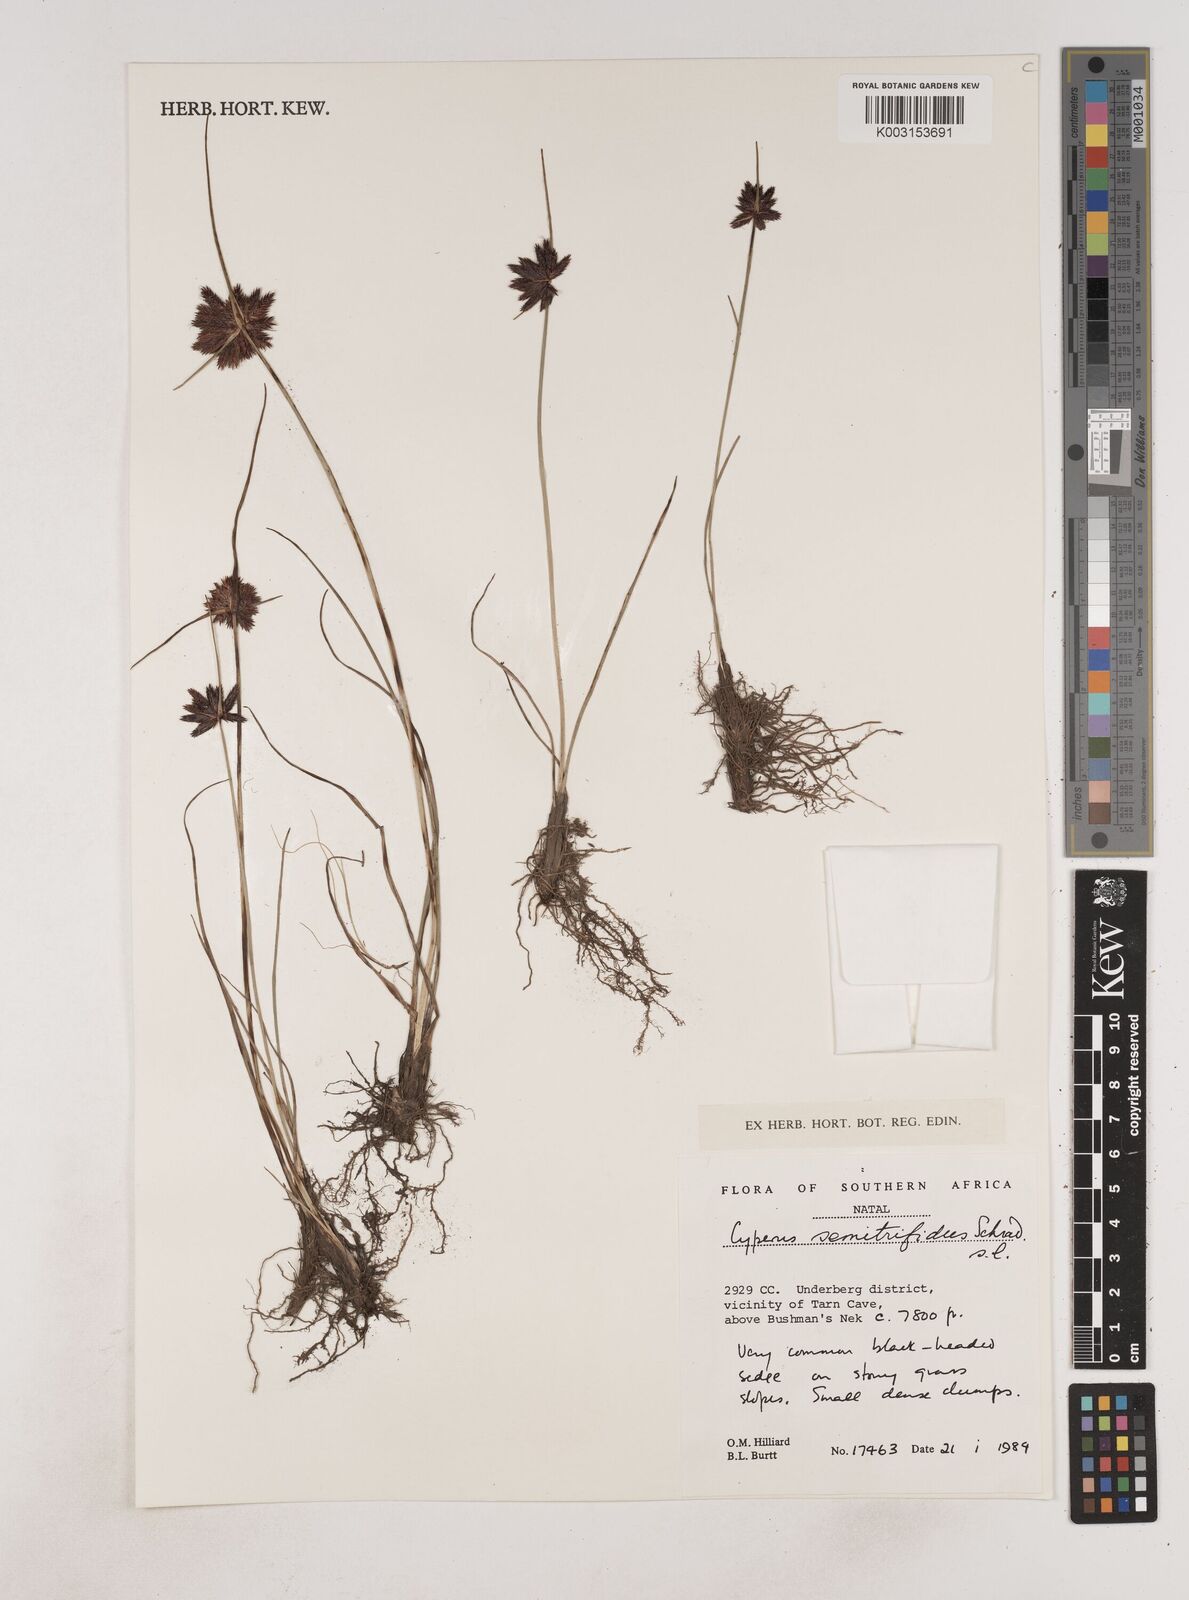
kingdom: Plantae
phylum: Tracheophyta
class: Liliopsida
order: Poales
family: Cyperaceae
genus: Cyperus
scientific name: Cyperus semitrifidus
